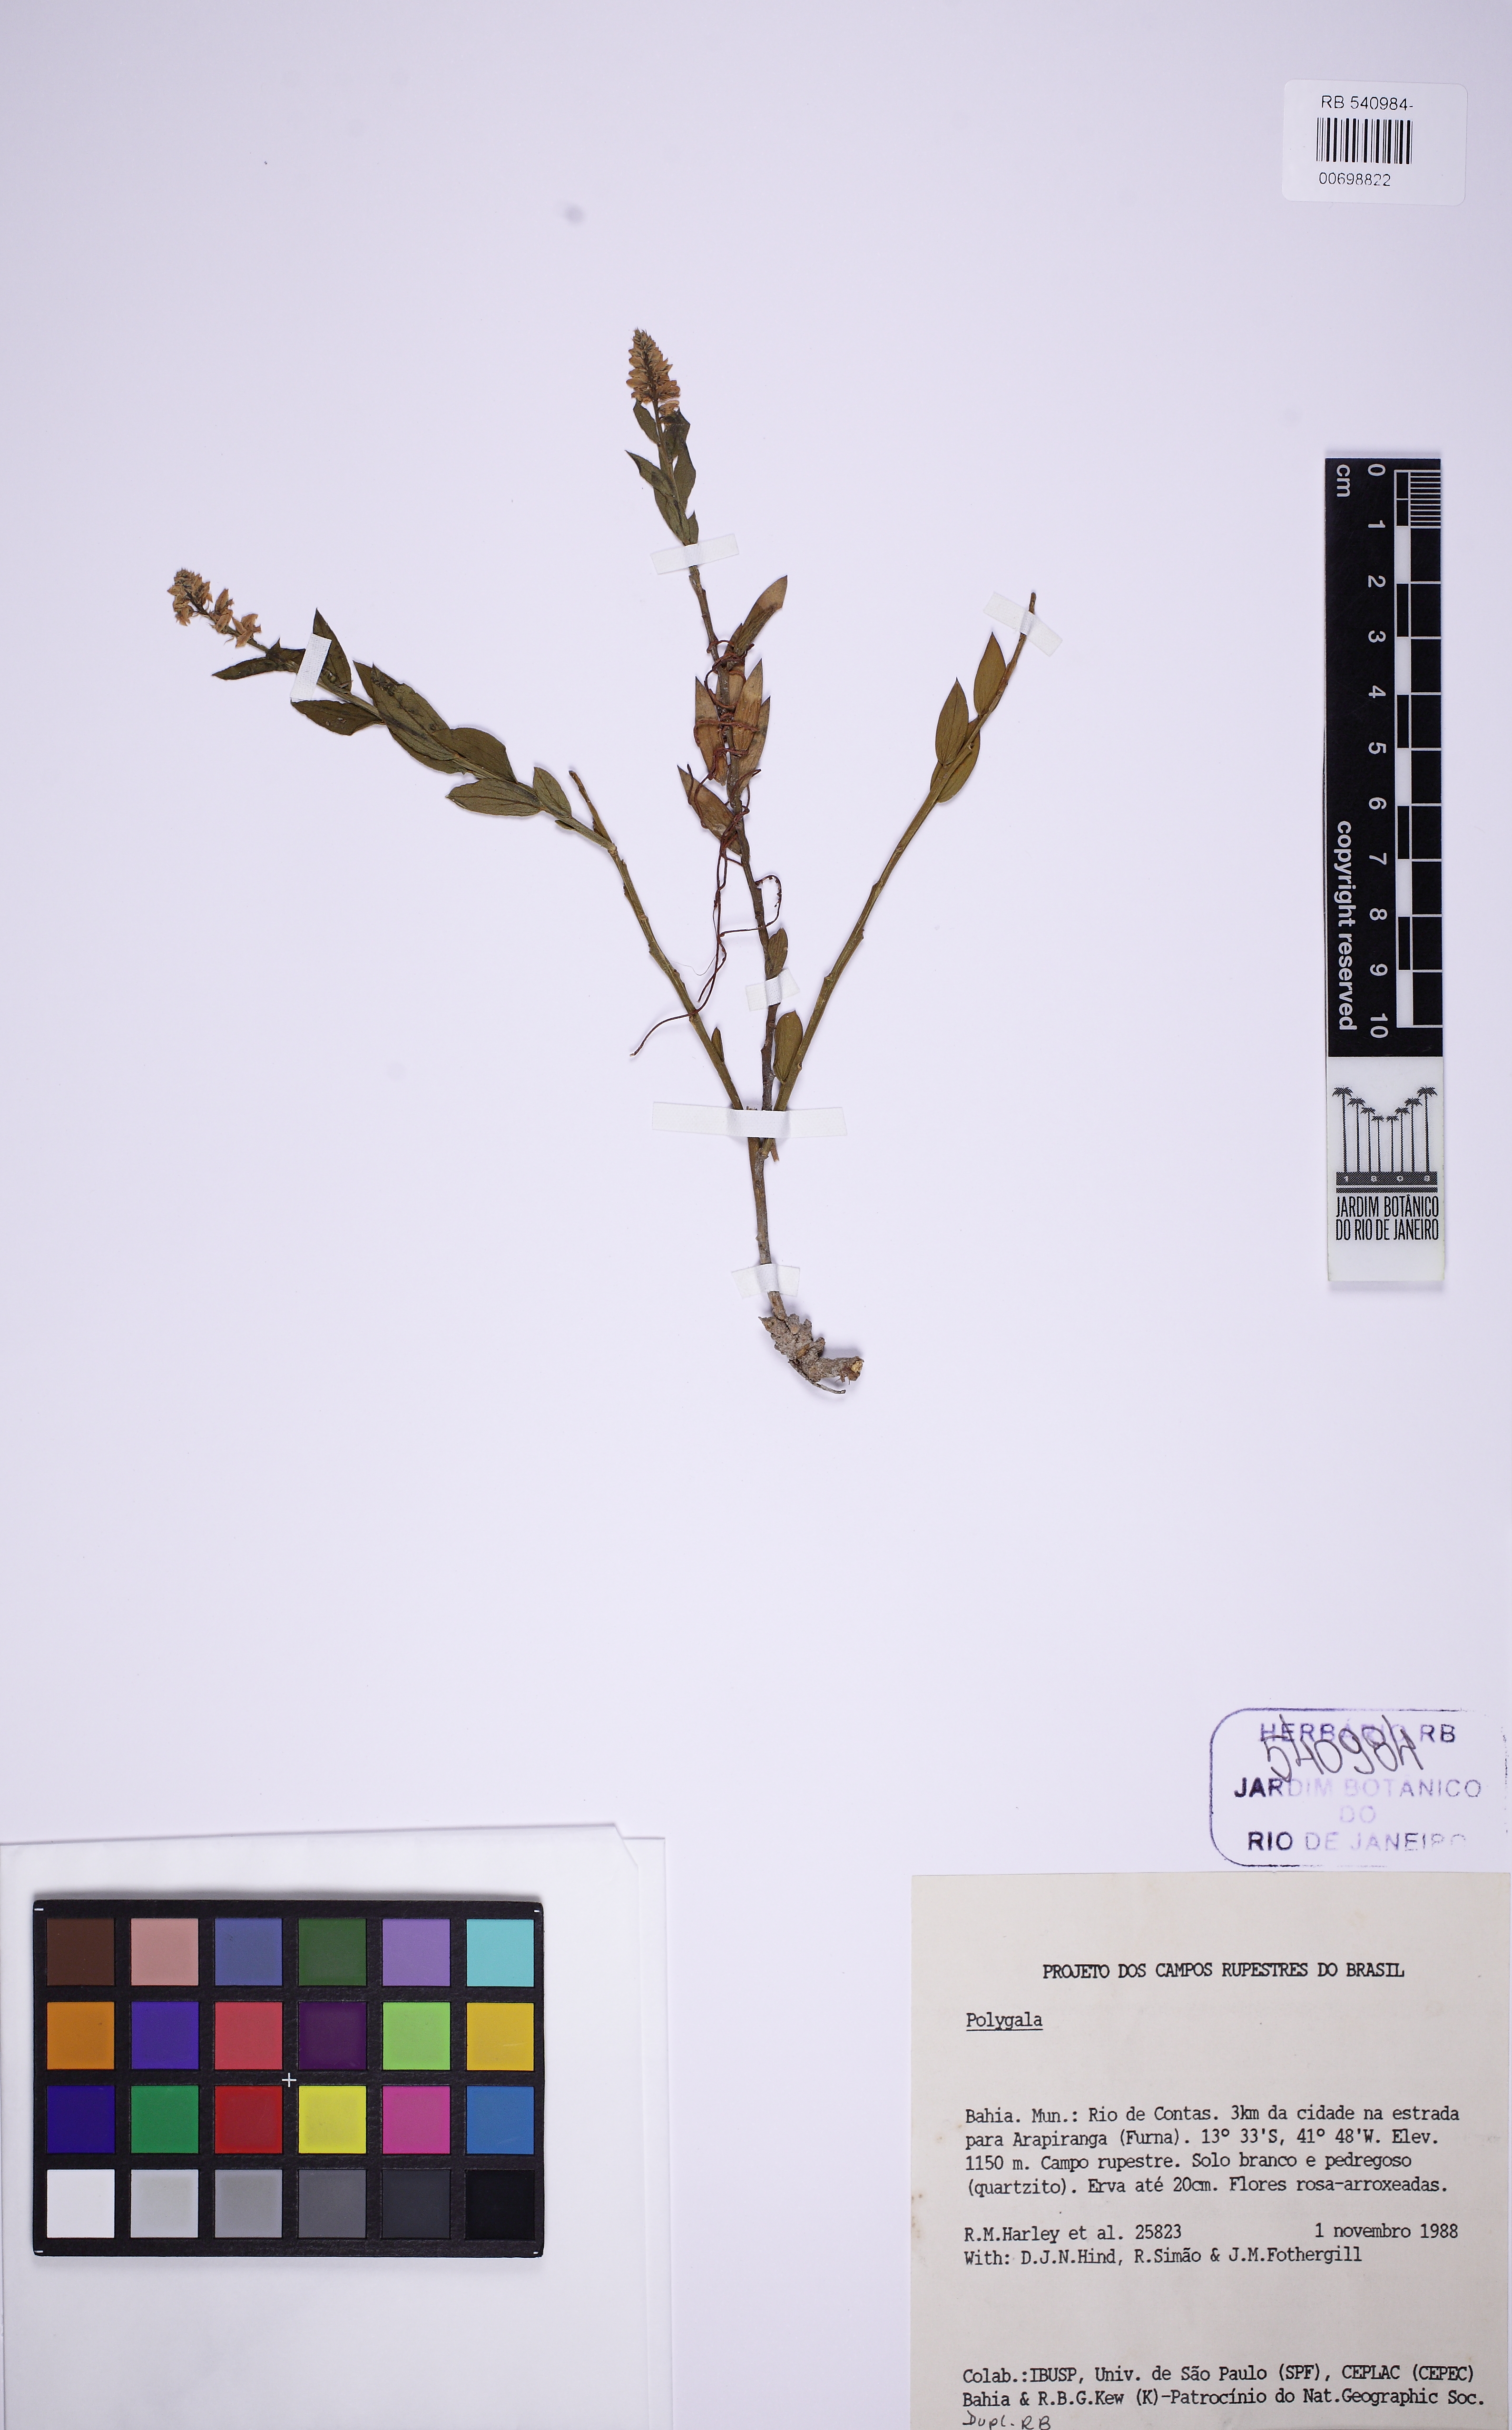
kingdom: Plantae
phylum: Tracheophyta
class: Magnoliopsida
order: Fabales
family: Polygalaceae
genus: Polygala
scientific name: Polygala poaya
